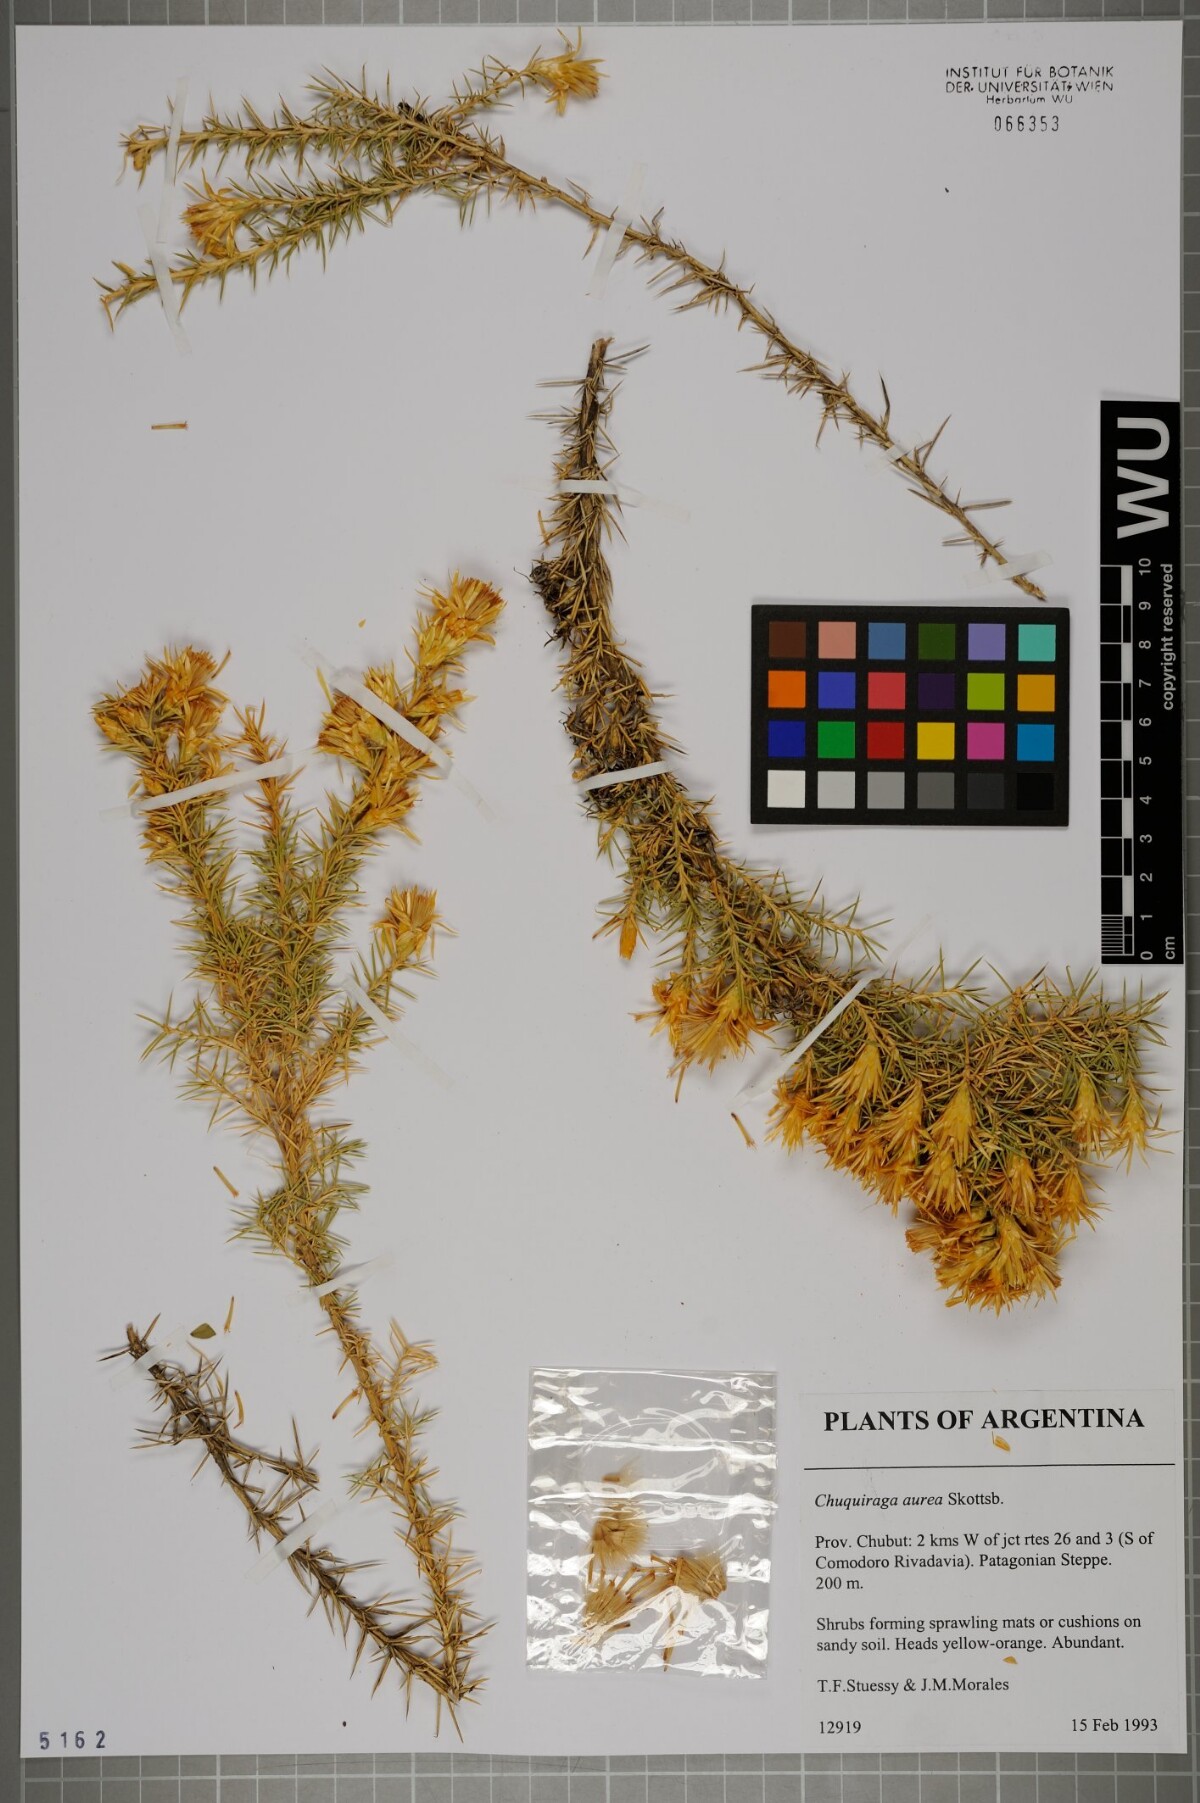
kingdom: Plantae
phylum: Tracheophyta
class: Magnoliopsida
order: Asterales
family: Asteraceae
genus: Chuquiraga
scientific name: Chuquiraga aurea
